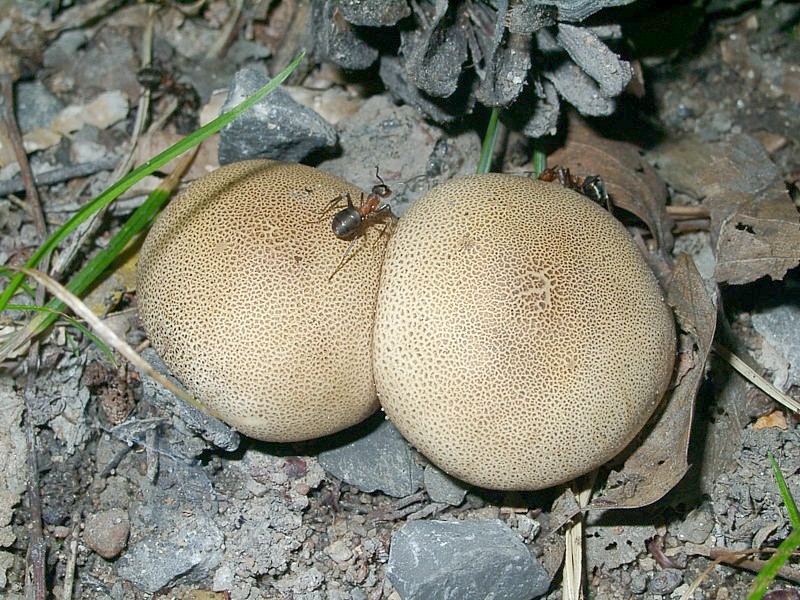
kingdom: Fungi
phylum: Basidiomycota
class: Agaricomycetes
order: Boletales
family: Sclerodermataceae
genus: Scleroderma
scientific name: Scleroderma areolatum
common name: Leopard earthball
